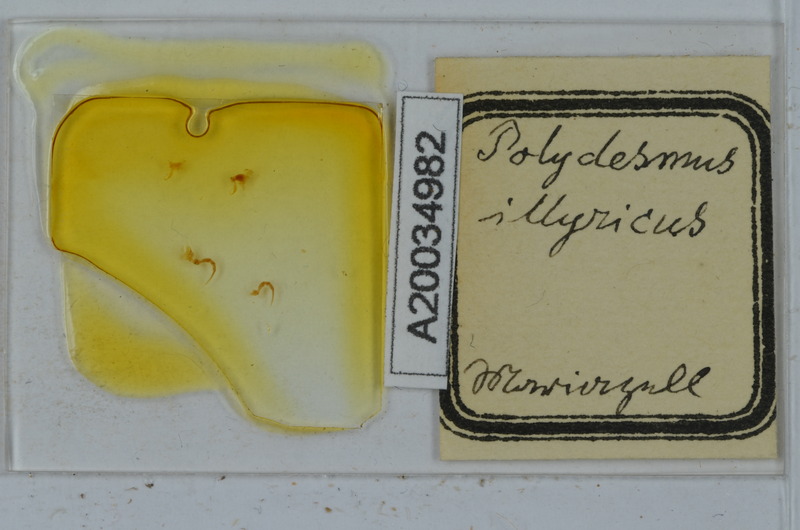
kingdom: Animalia
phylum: Arthropoda
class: Diplopoda
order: Polydesmida
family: Polydesmidae
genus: Polydesmus
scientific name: Polydesmus complanatus
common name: Flat-backed millipede
